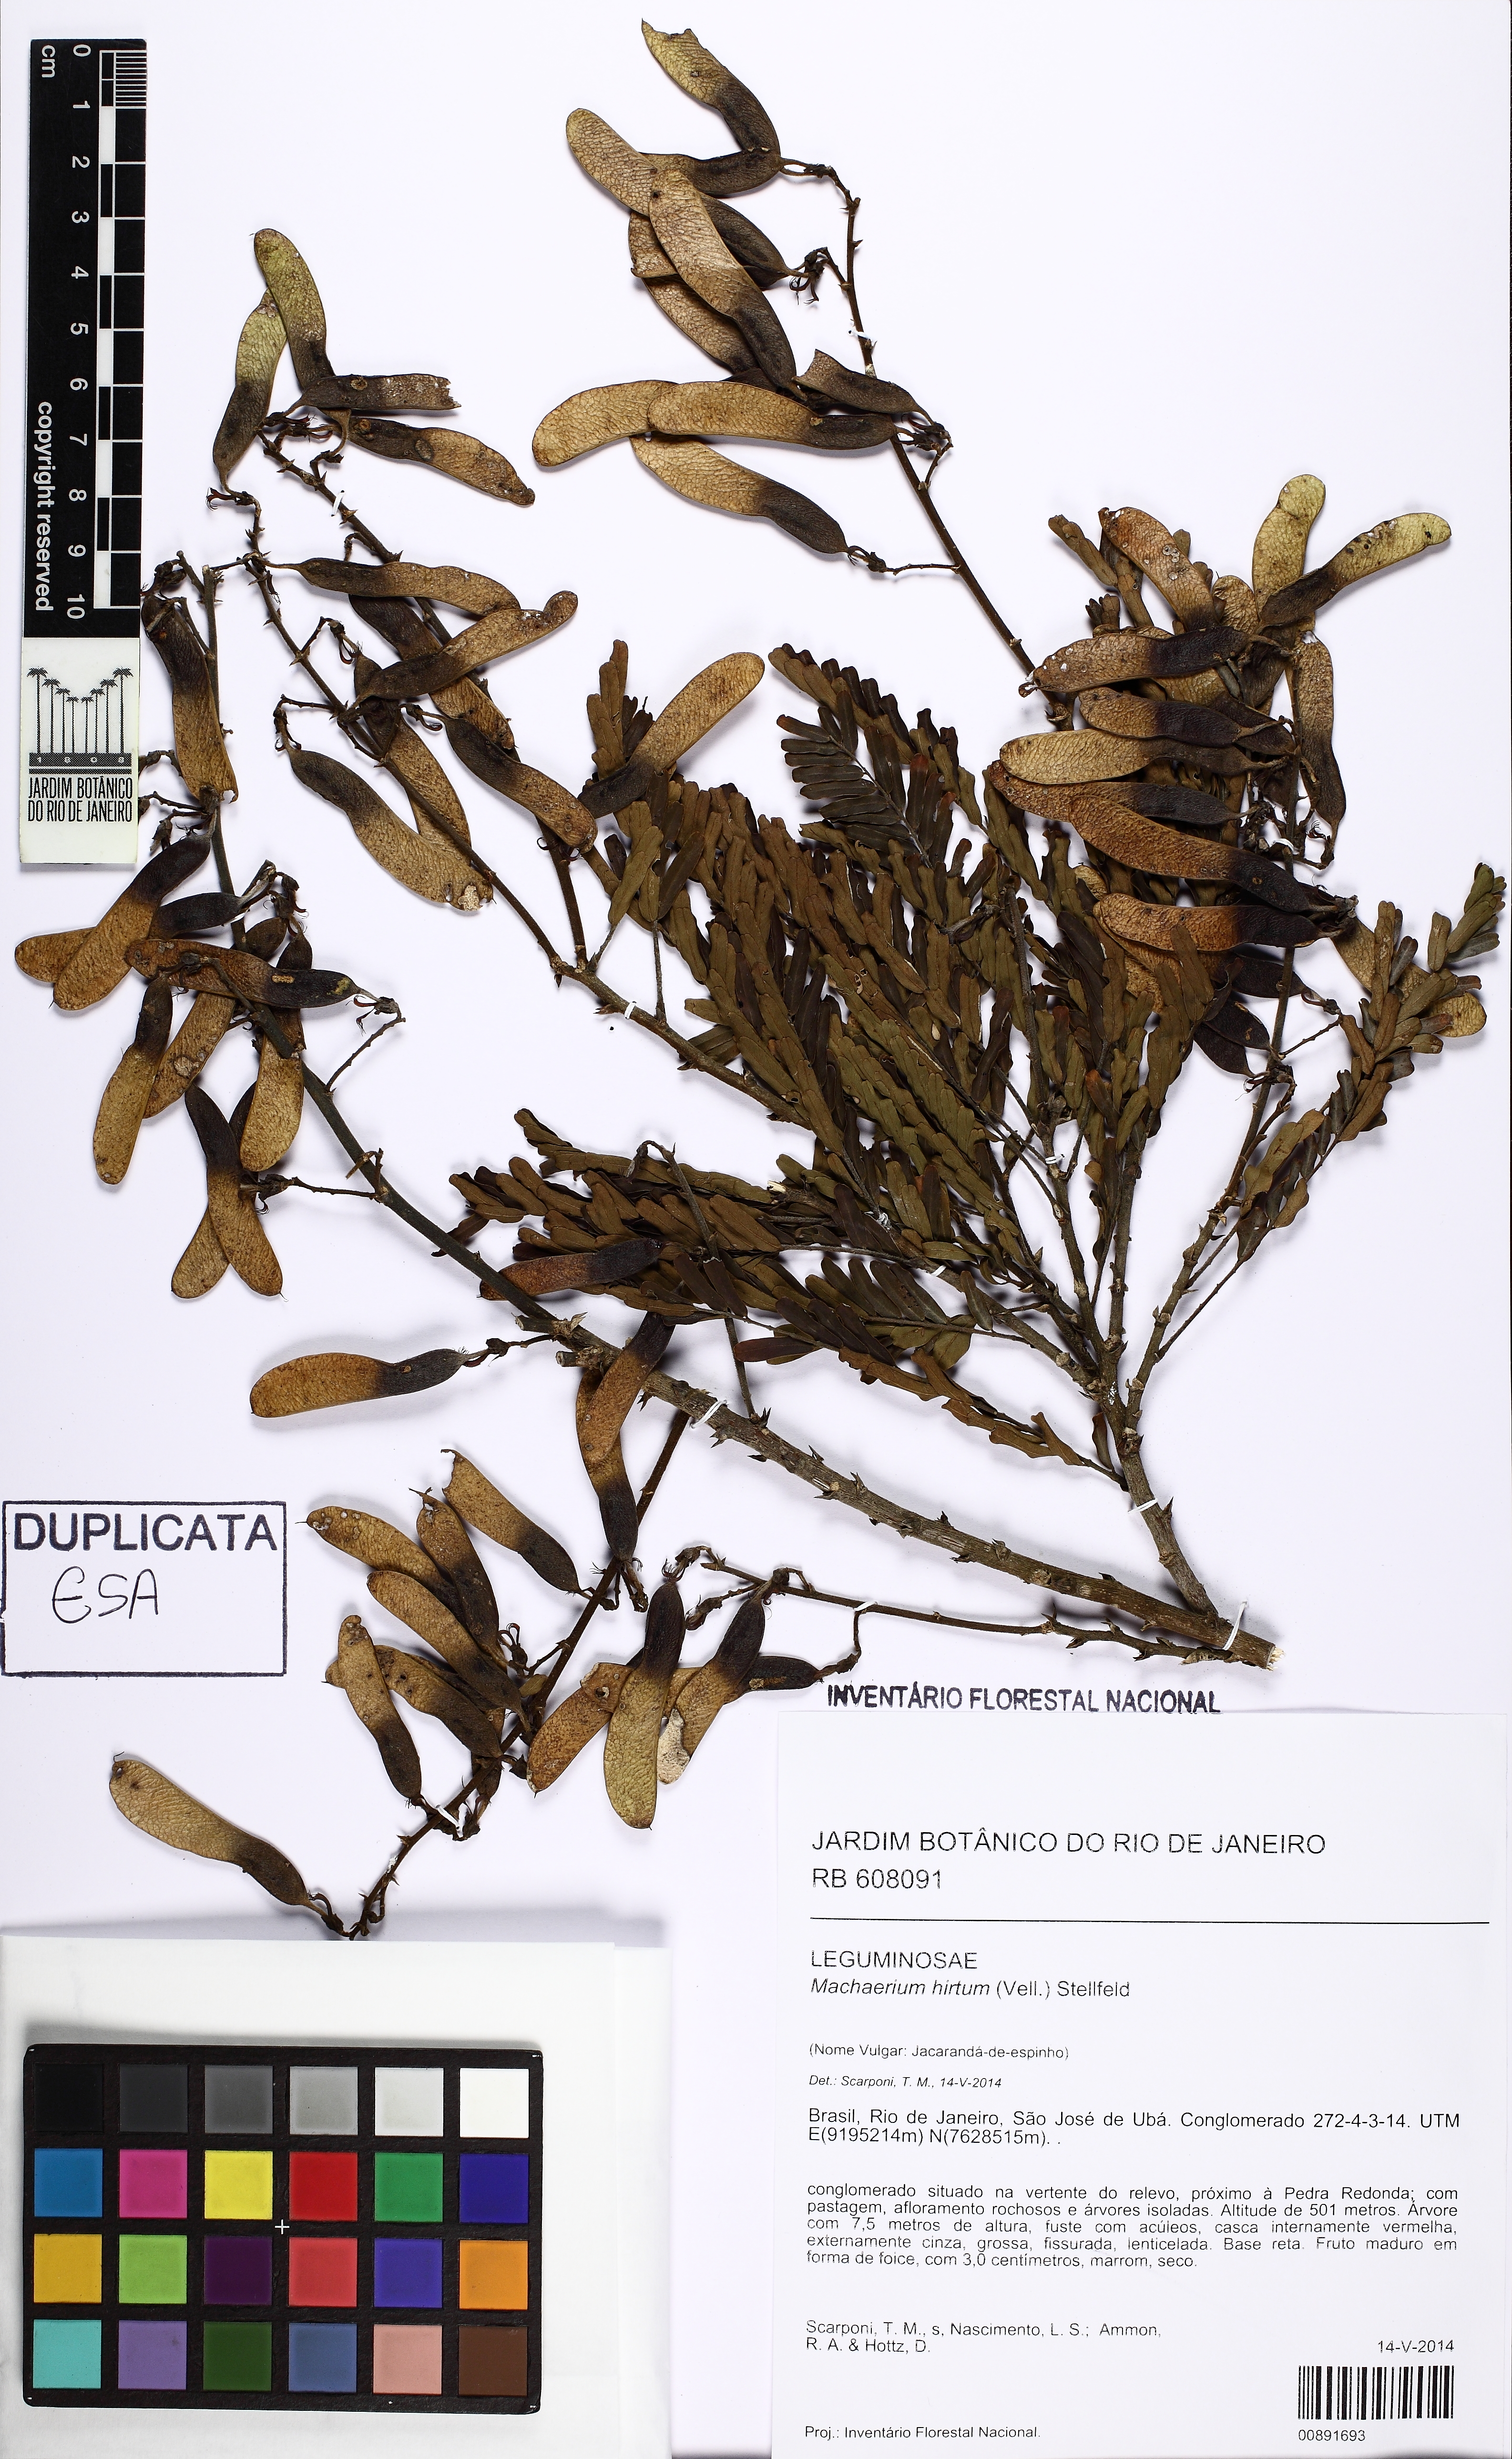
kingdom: Plantae
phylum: Tracheophyta
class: Magnoliopsida
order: Fabales
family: Fabaceae
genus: Machaerium
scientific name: Machaerium hirtum
